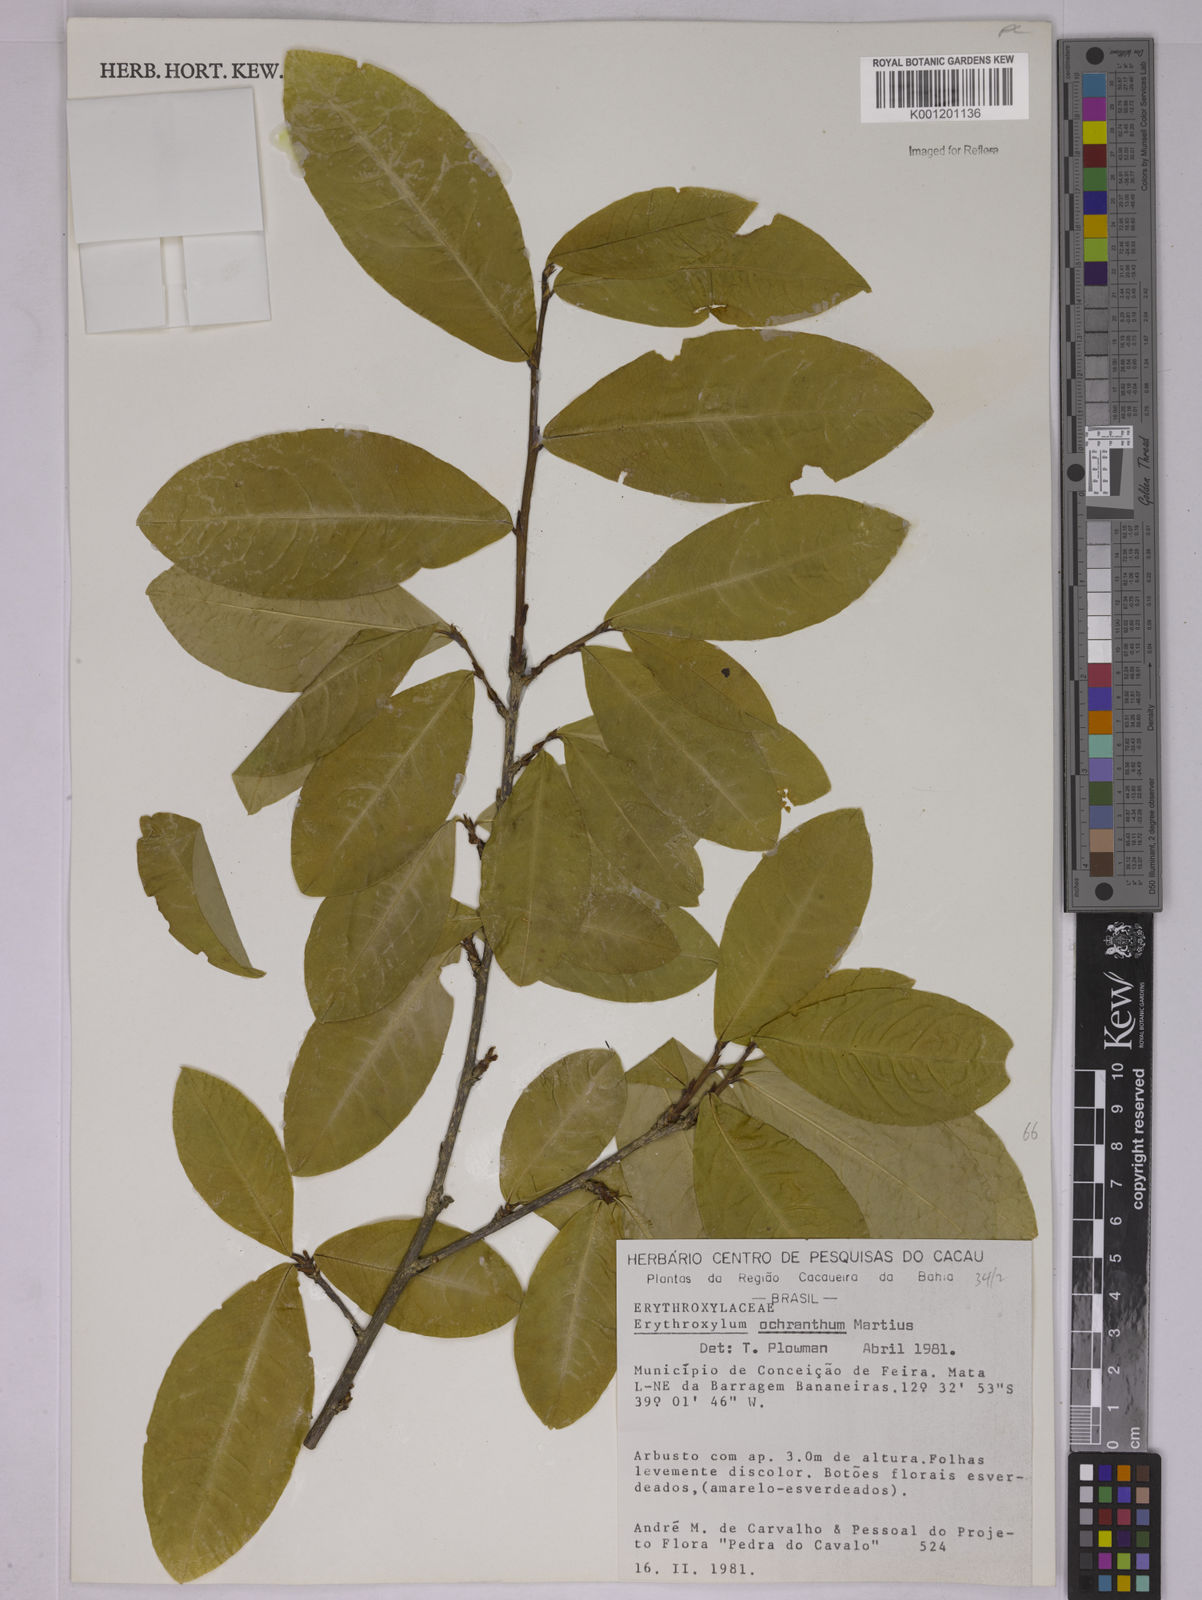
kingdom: Plantae
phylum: Tracheophyta
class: Magnoliopsida
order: Malpighiales
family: Erythroxylaceae
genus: Erythroxylum
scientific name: Erythroxylum ochranthum
